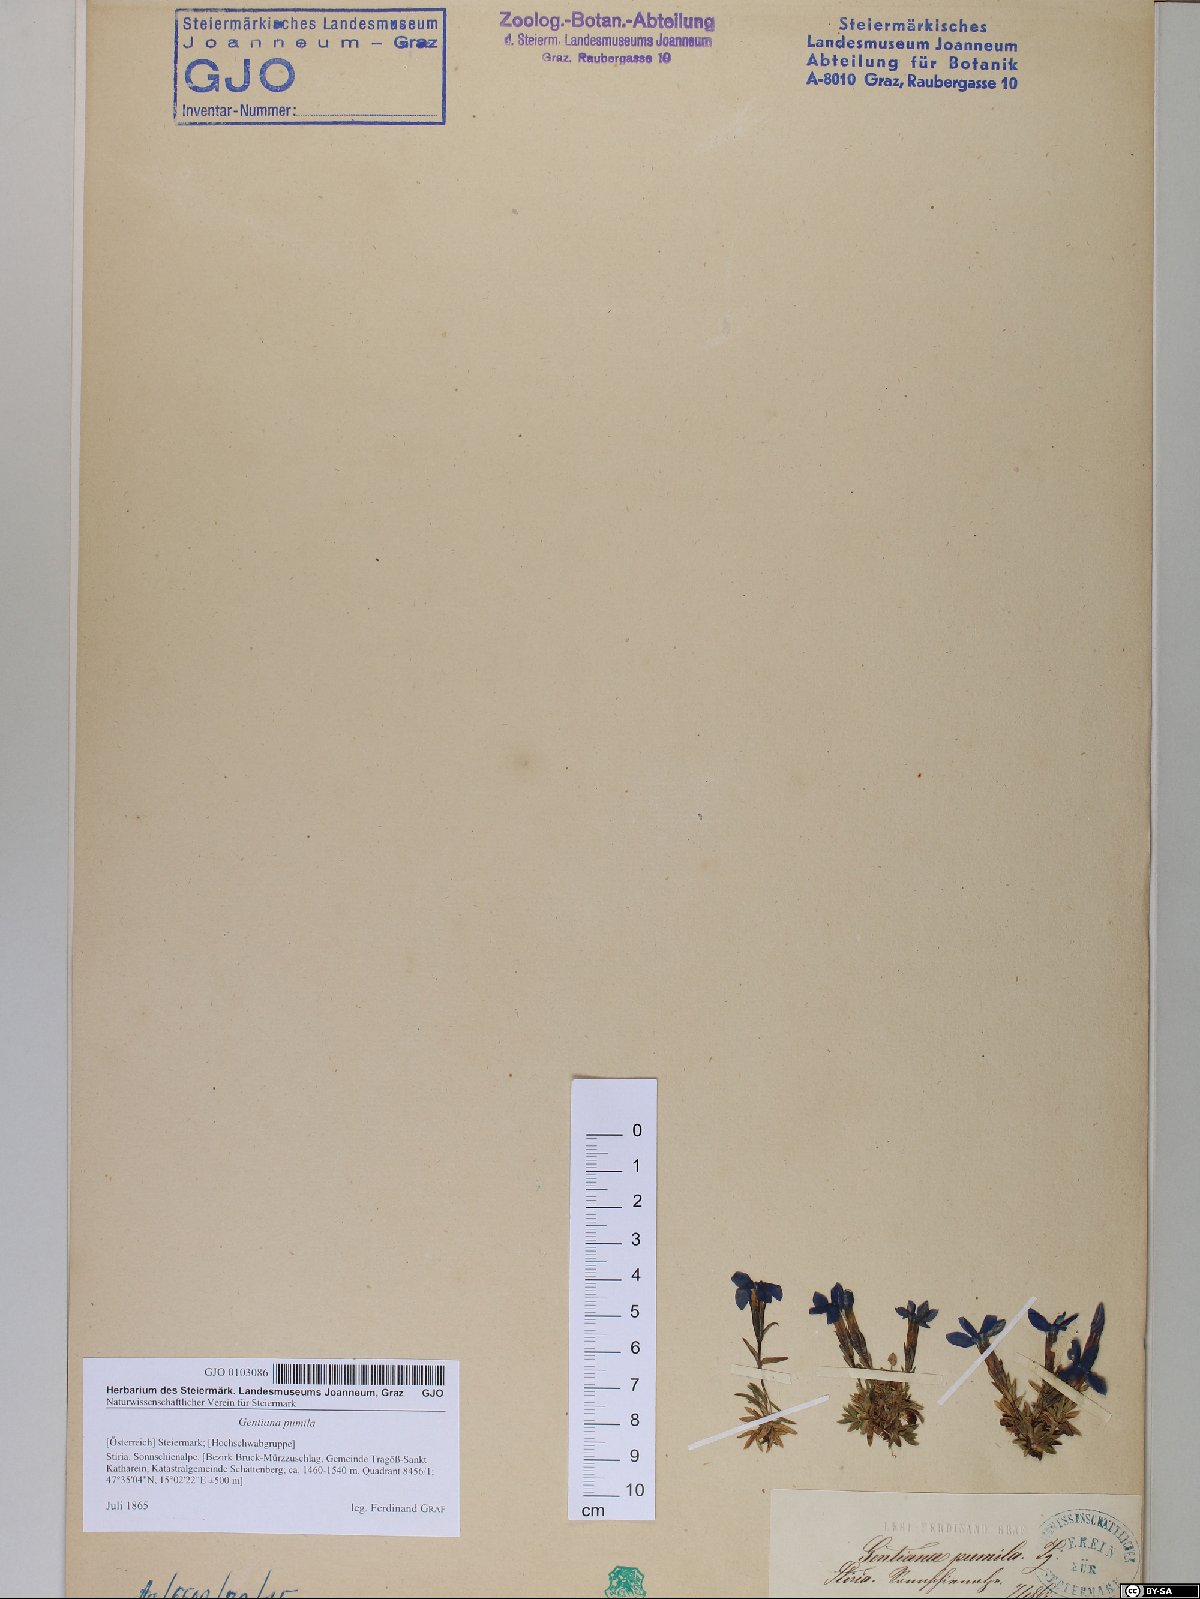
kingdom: Plantae
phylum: Tracheophyta
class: Magnoliopsida
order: Gentianales
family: Gentianaceae
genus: Gentiana
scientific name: Gentiana pumila
